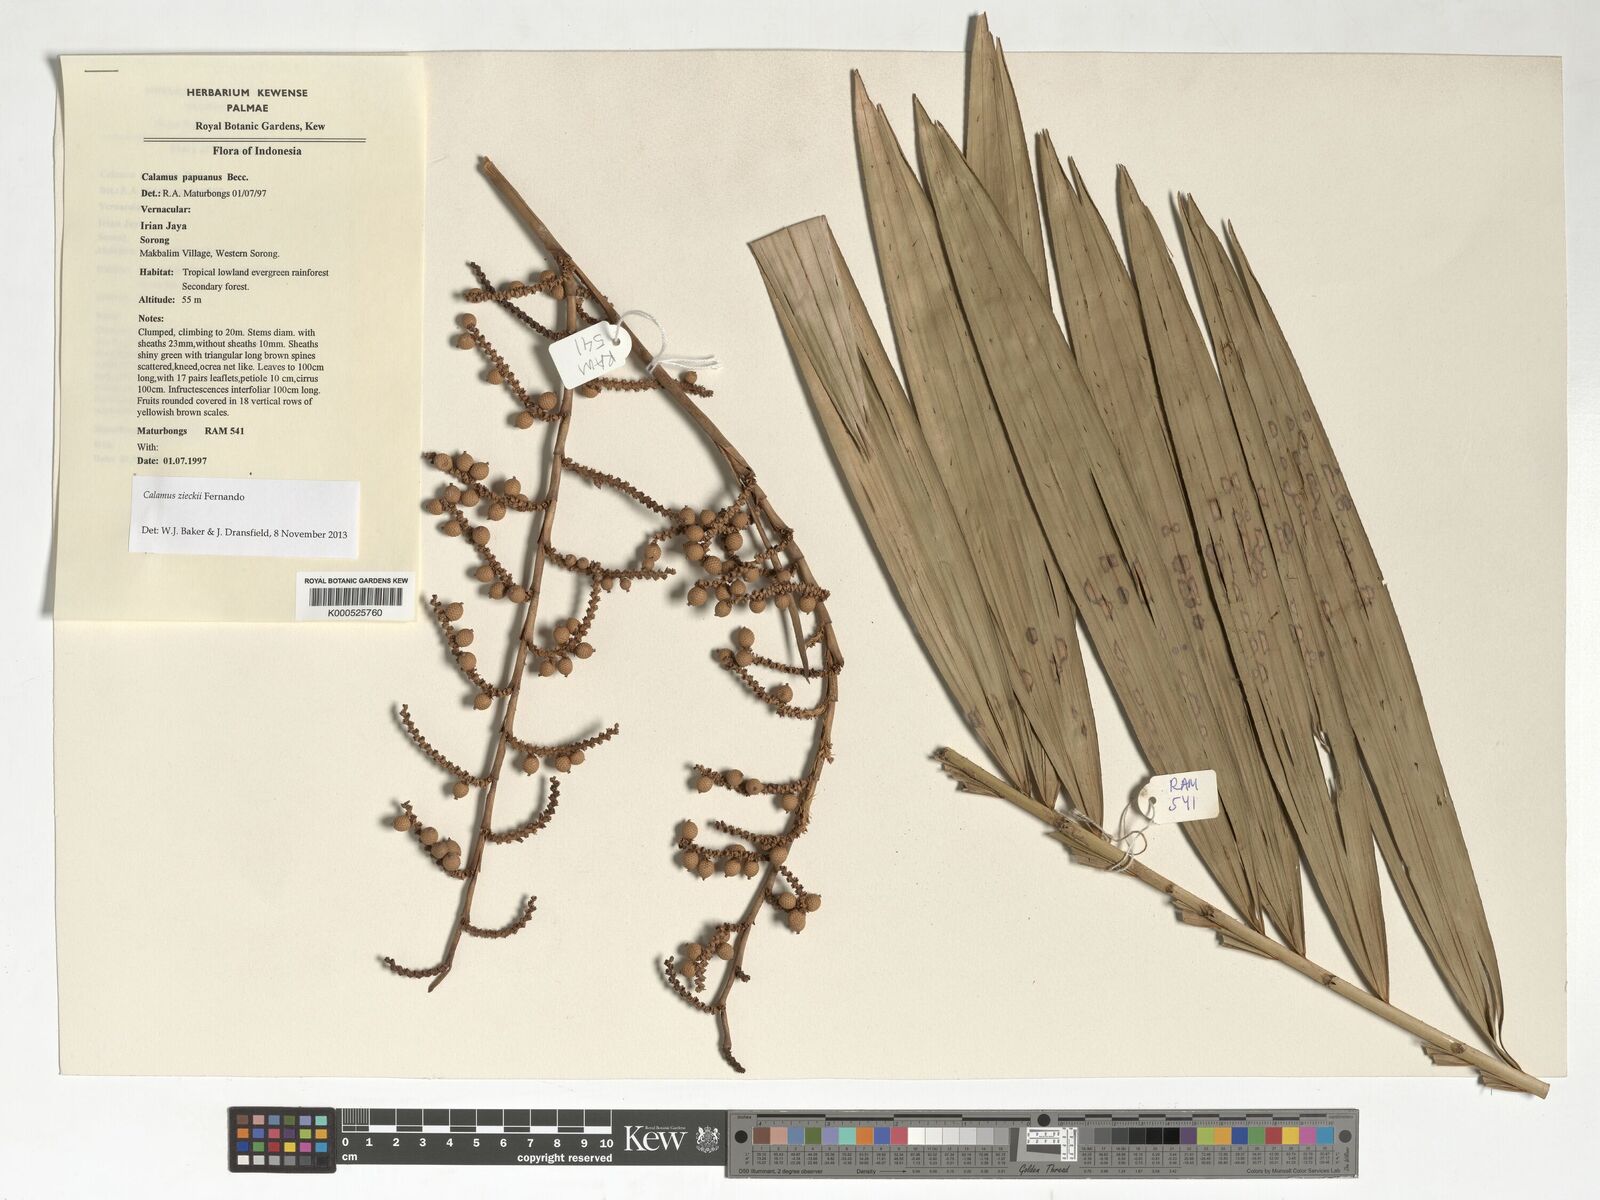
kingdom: Plantae
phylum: Tracheophyta
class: Liliopsida
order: Arecales
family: Arecaceae
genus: Calamus
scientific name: Calamus zieckii
